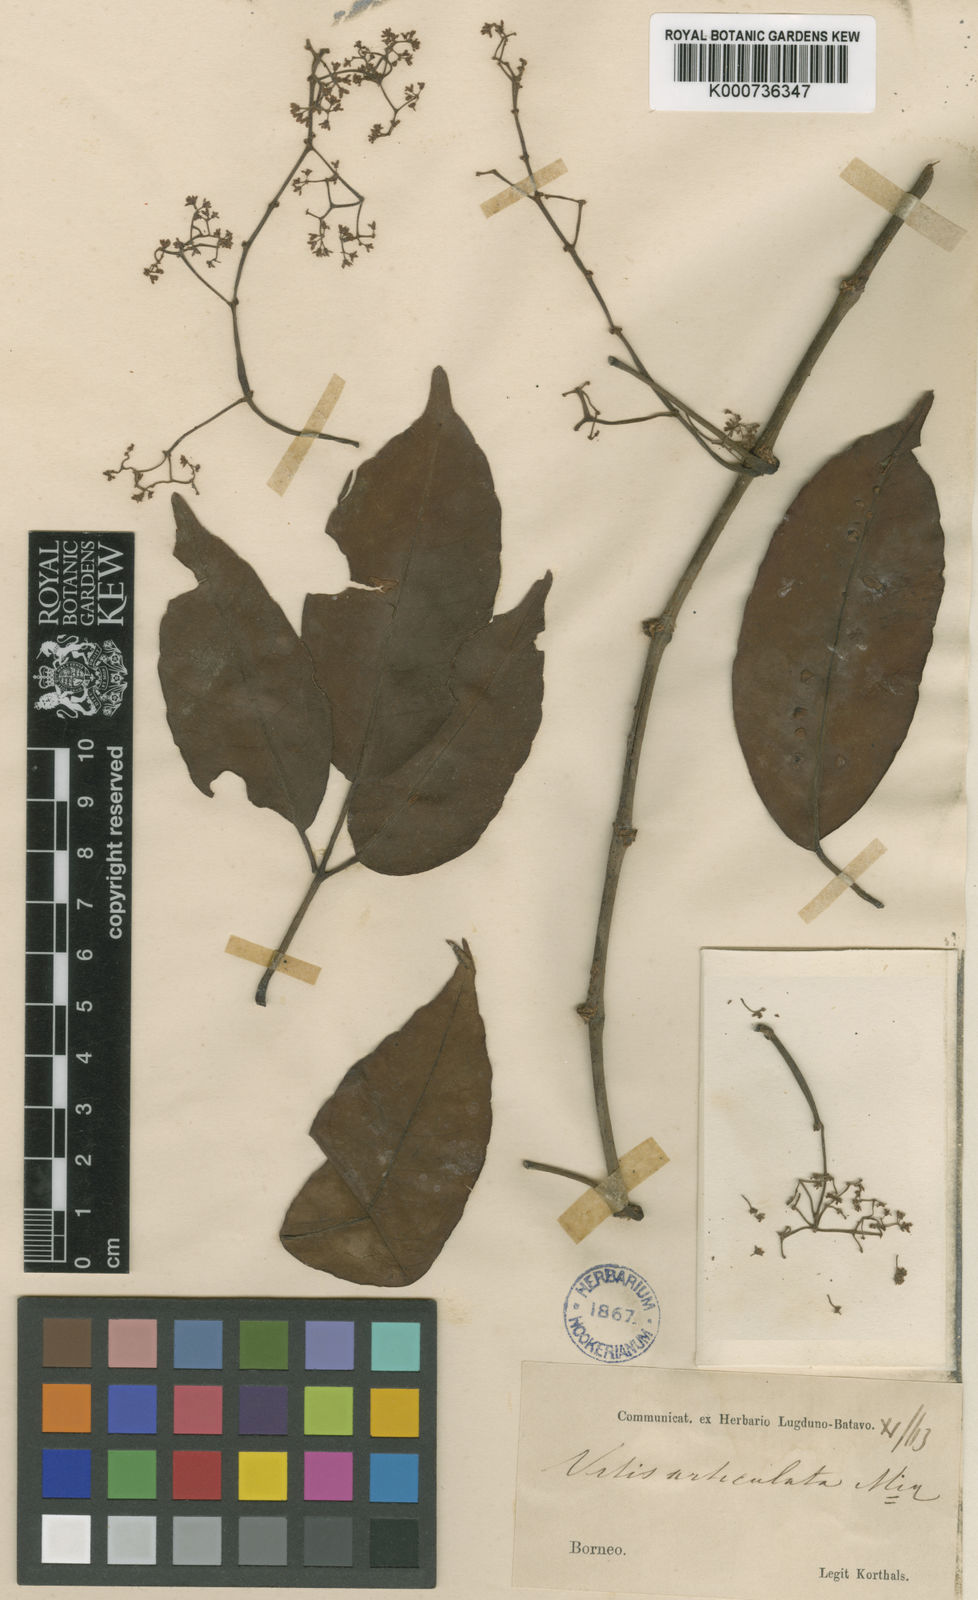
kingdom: Plantae
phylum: Tracheophyta
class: Magnoliopsida
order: Vitales
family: Vitaceae
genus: Tetrastigma
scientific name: Tetrastigma articulatum
